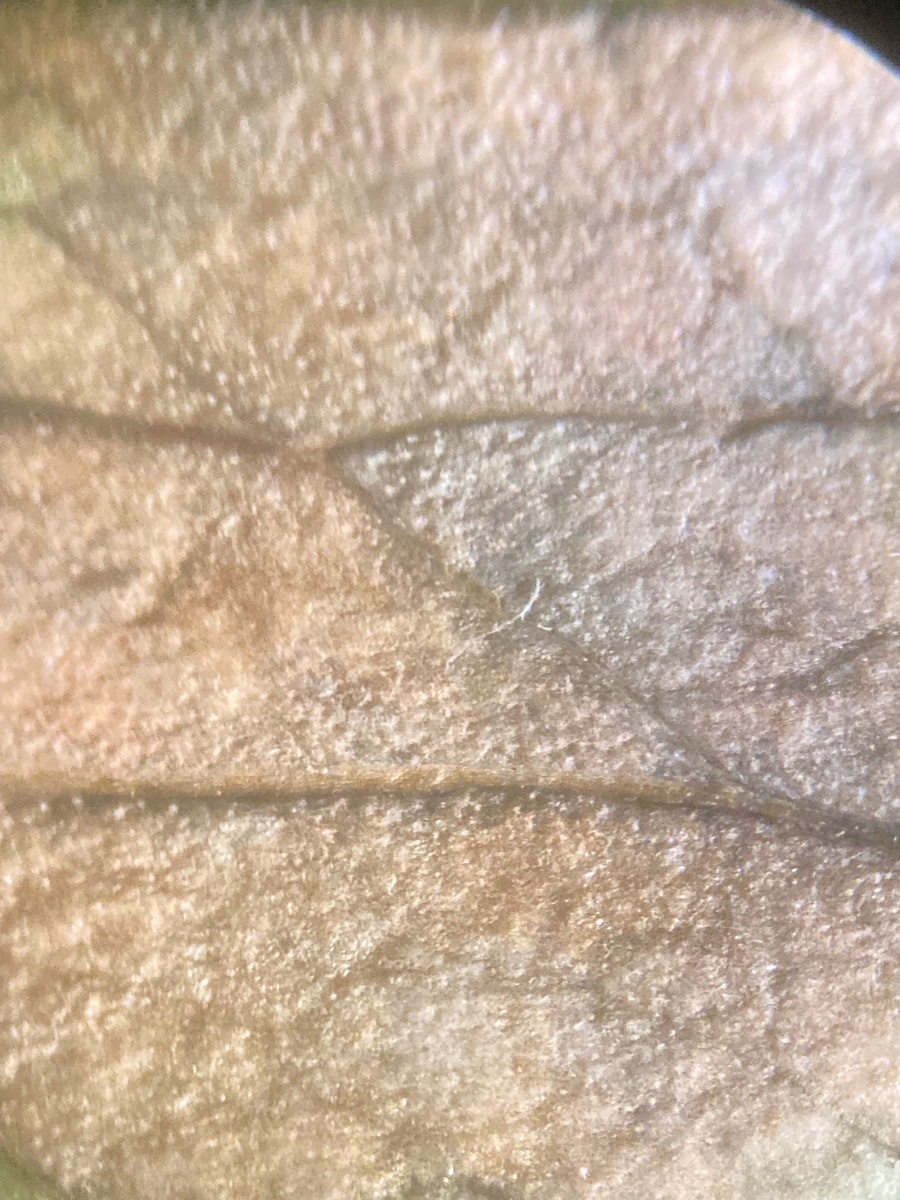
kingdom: Fungi
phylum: Ascomycota
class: Dothideomycetes
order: Capnodiales
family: Mycosphaerellaceae
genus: Ramularia
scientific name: Ramularia deusta
